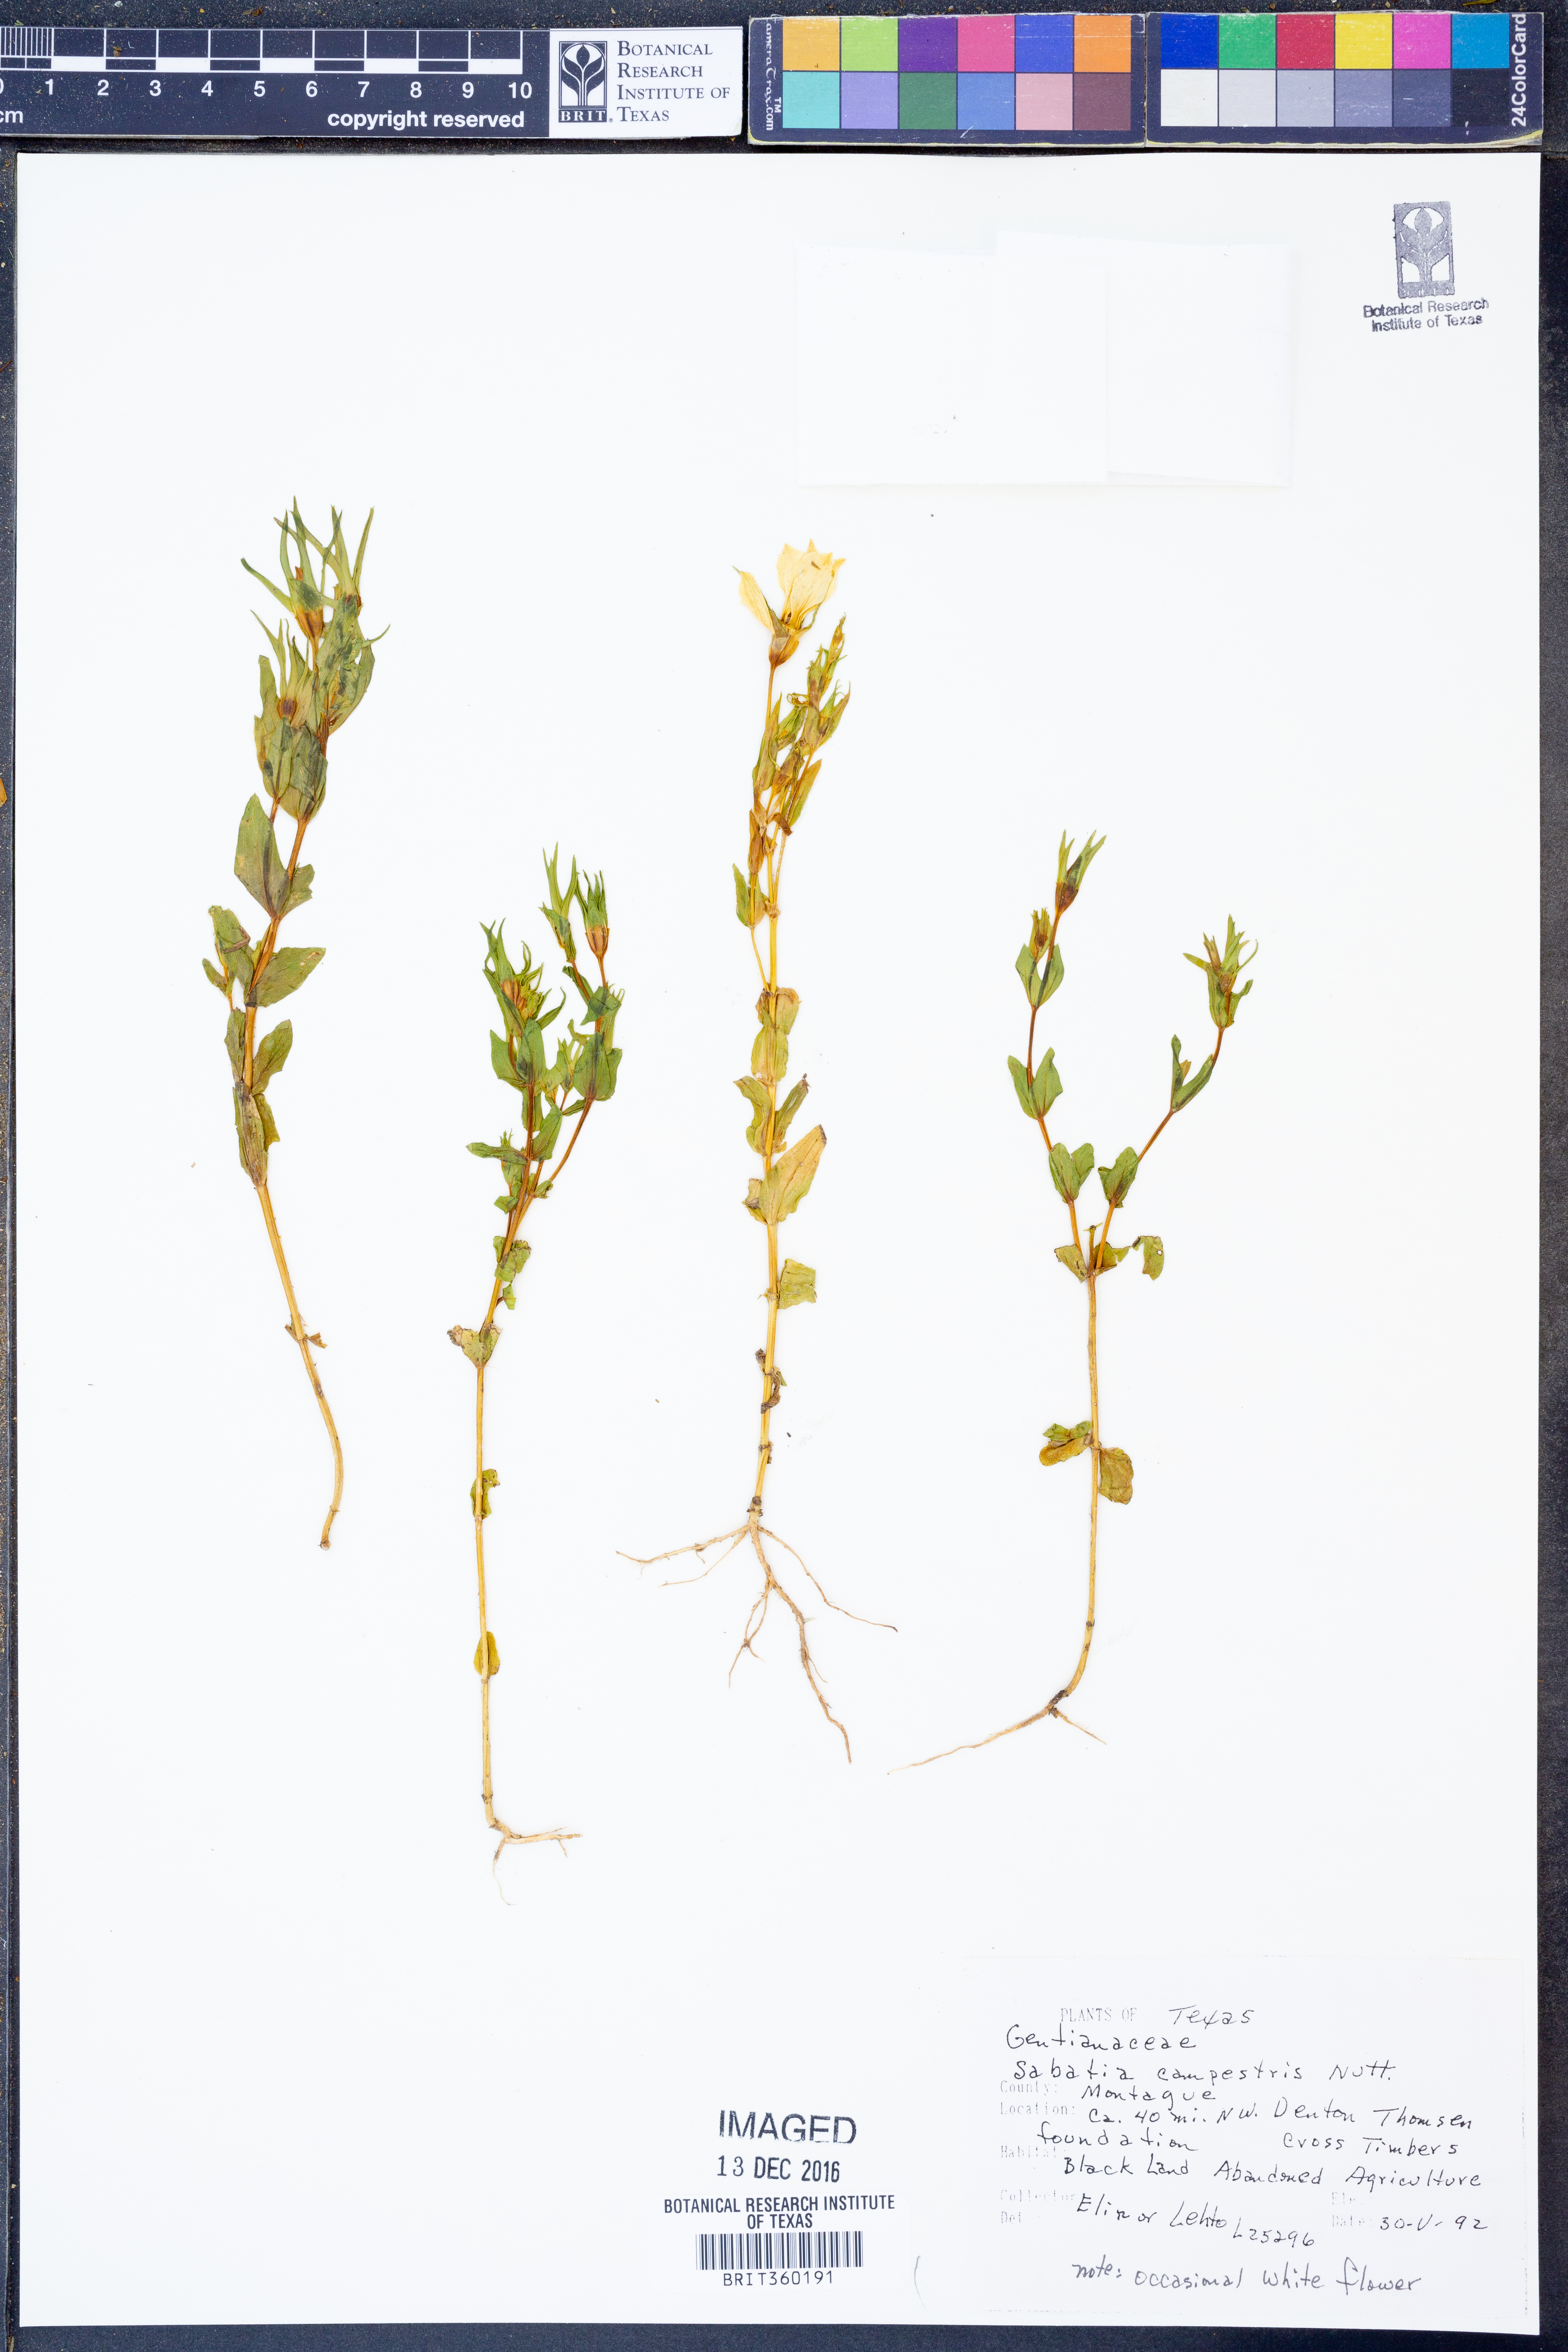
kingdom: Plantae
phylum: Tracheophyta
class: Magnoliopsida
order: Gentianales
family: Gentianaceae
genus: Sabatia
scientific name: Sabatia campestris
